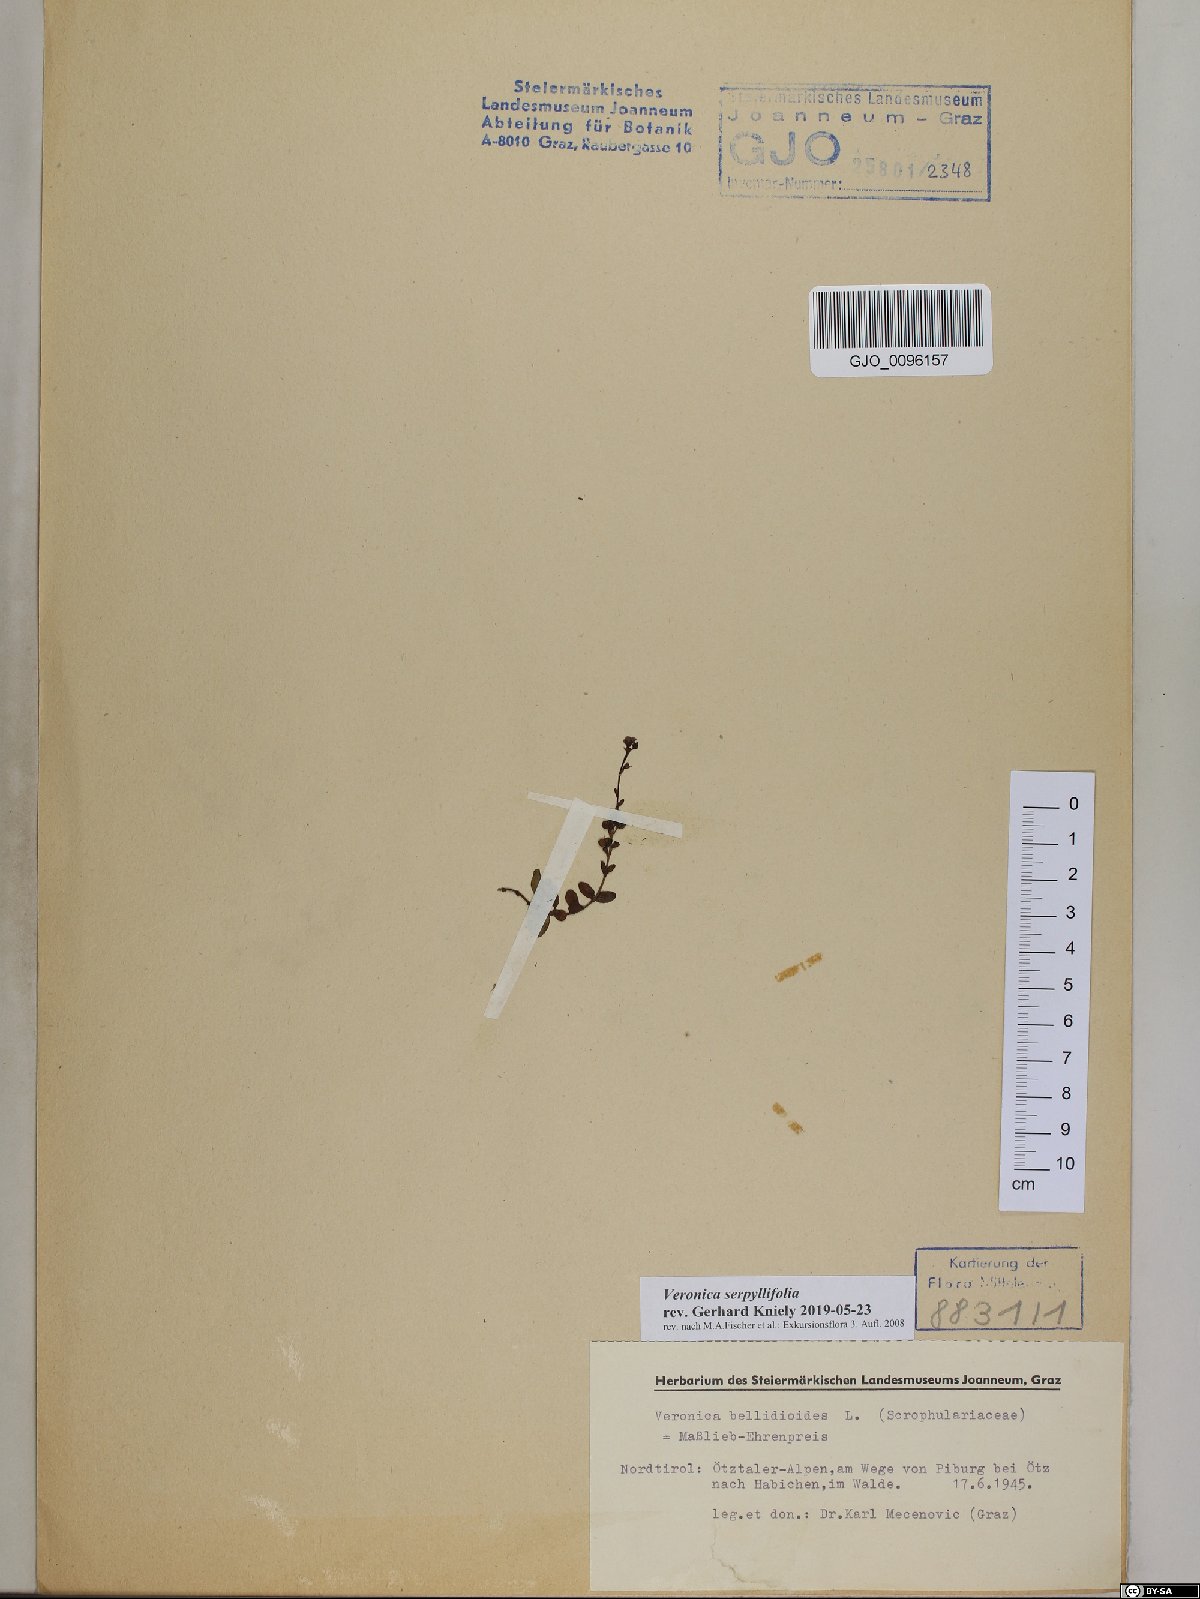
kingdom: Plantae
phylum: Tracheophyta
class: Magnoliopsida
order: Lamiales
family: Plantaginaceae
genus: Veronica
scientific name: Veronica serpyllifolia
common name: Thyme-leaved speedwell
